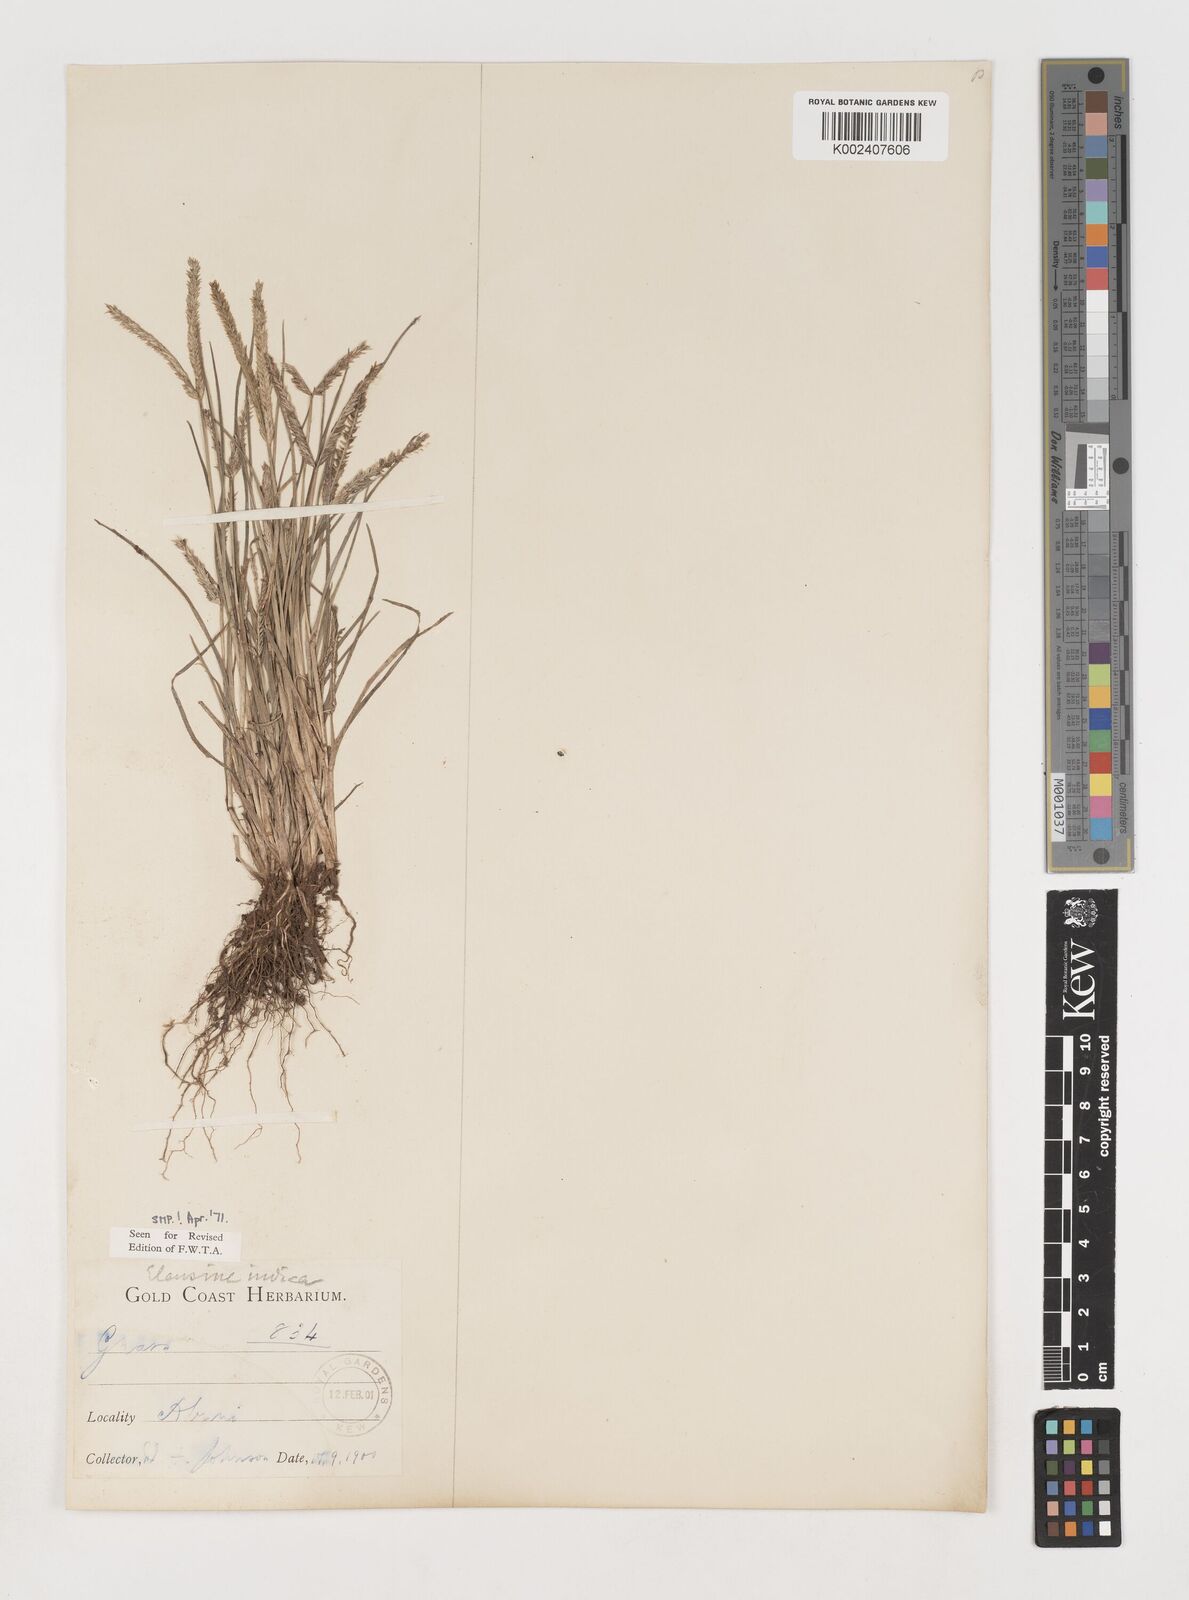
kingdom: Plantae
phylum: Tracheophyta
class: Liliopsida
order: Poales
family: Poaceae
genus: Eleusine
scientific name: Eleusine indica
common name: Yard-grass
